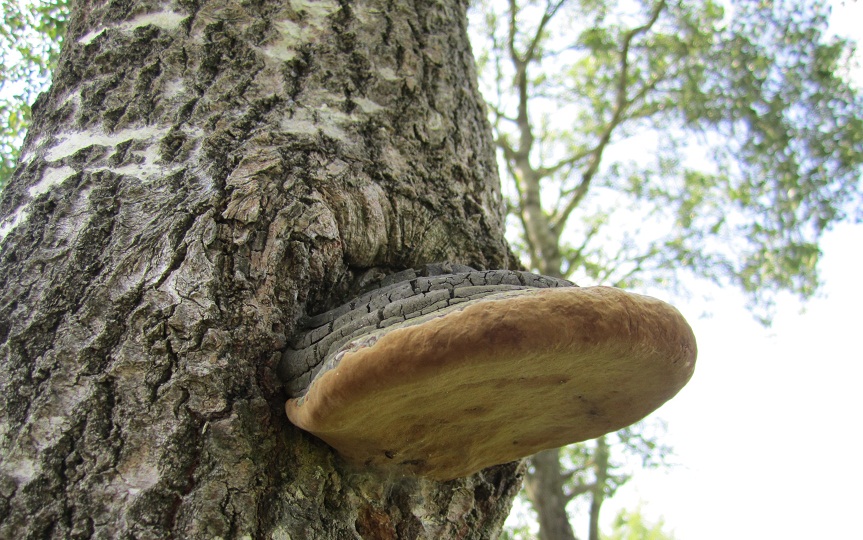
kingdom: Fungi
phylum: Basidiomycota
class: Agaricomycetes
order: Hymenochaetales
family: Hymenochaetaceae
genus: Phellinus
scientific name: Phellinus populicola
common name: poppel-ildporesvamp
